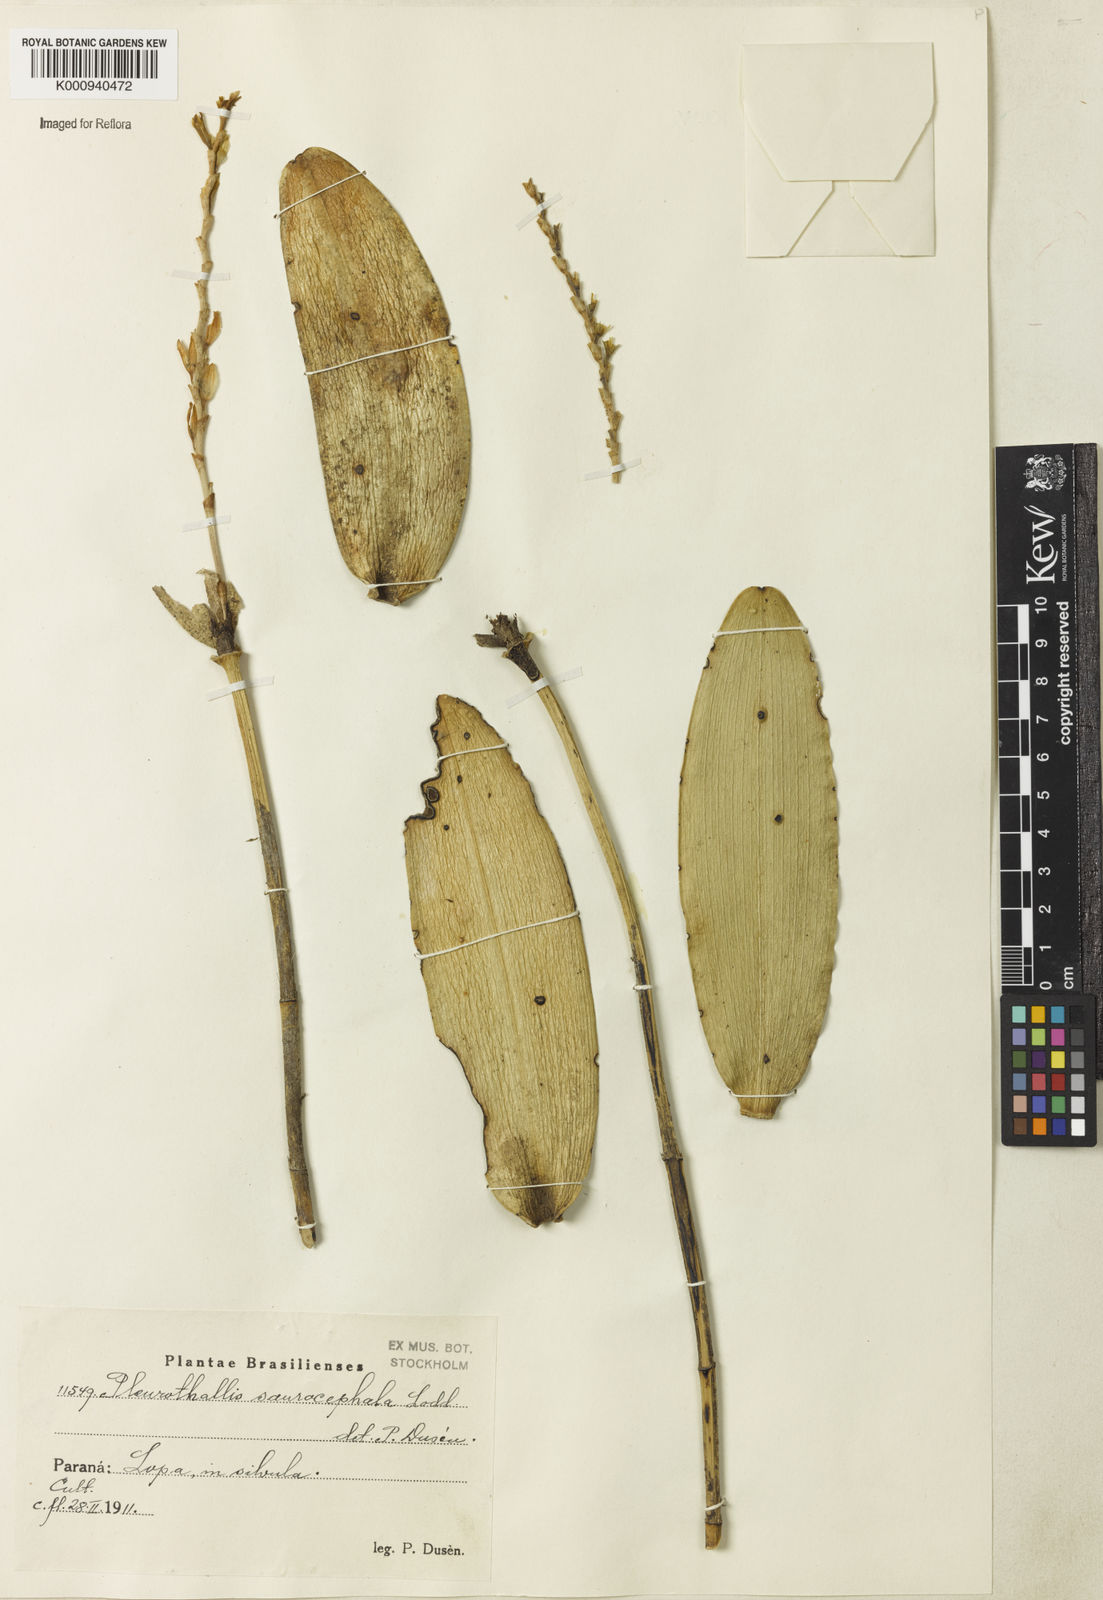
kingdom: Plantae
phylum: Tracheophyta
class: Liliopsida
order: Asparagales
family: Orchidaceae
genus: Acianthera
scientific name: Acianthera saurocephala
